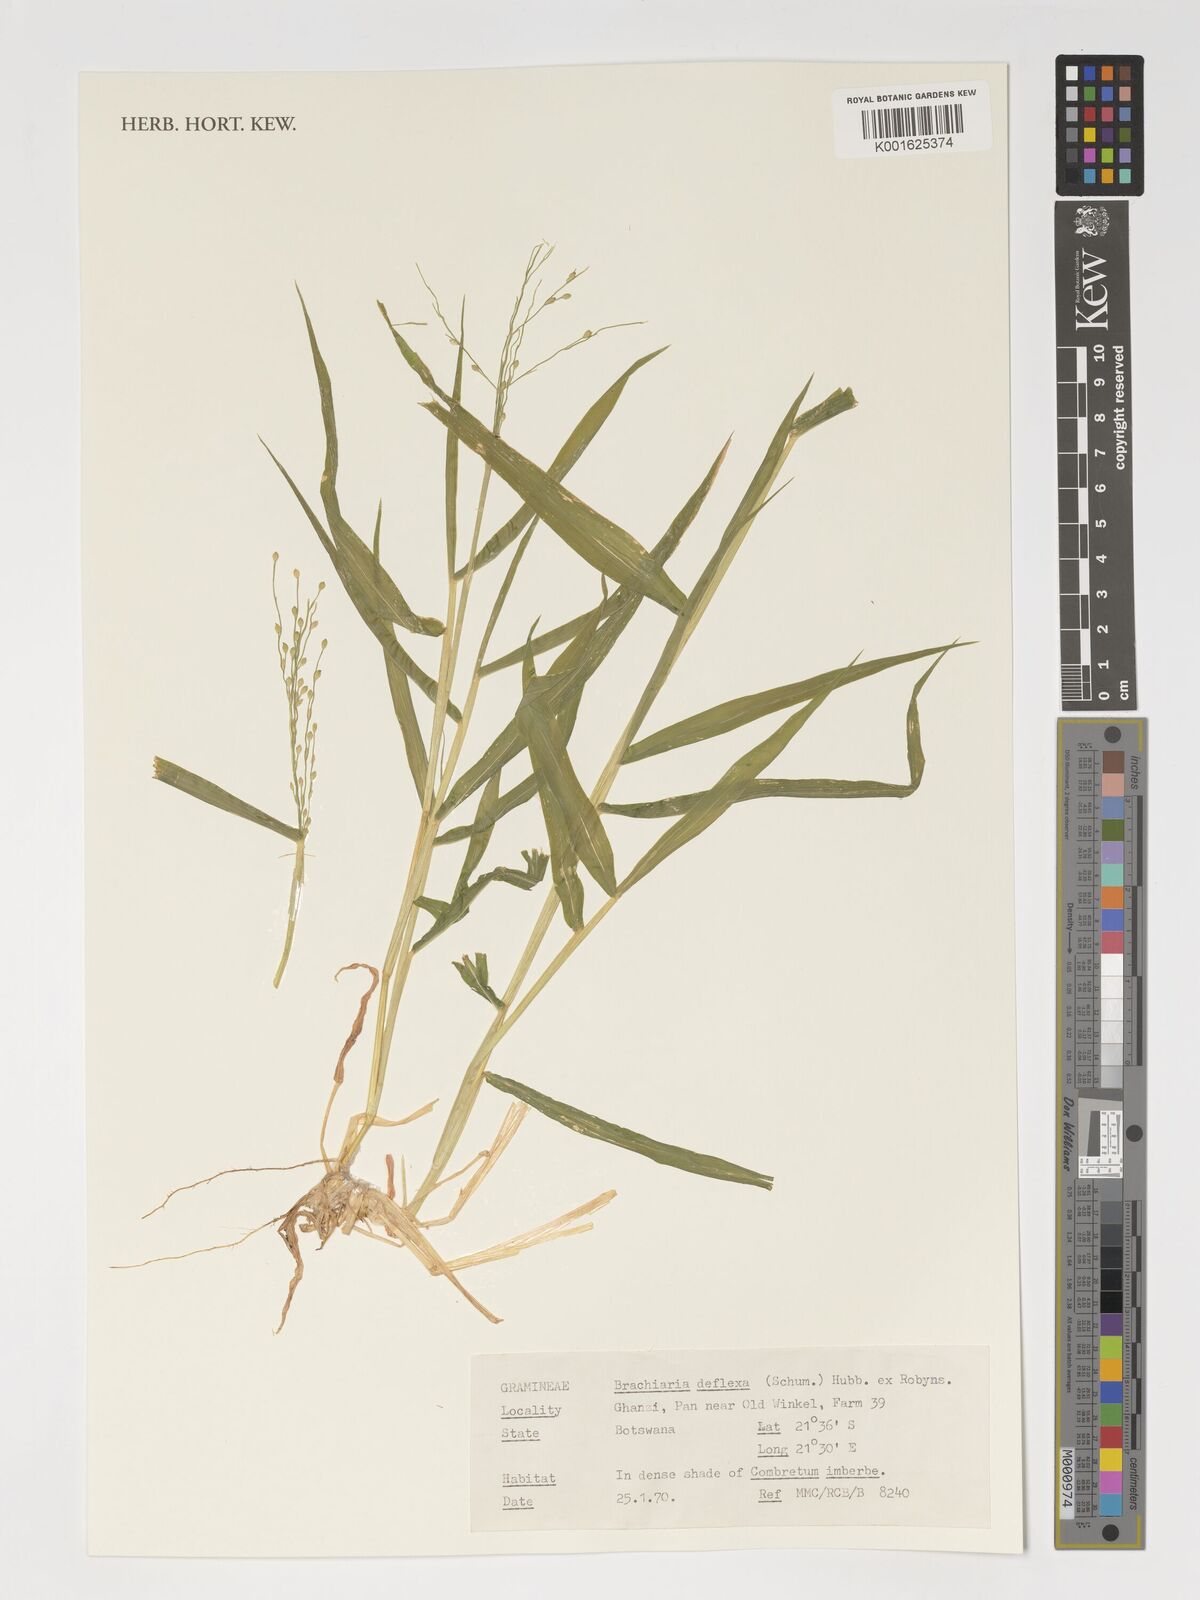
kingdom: Plantae
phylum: Tracheophyta
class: Liliopsida
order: Poales
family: Poaceae
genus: Urochloa
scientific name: Urochloa deflexa
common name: Guinea millet
